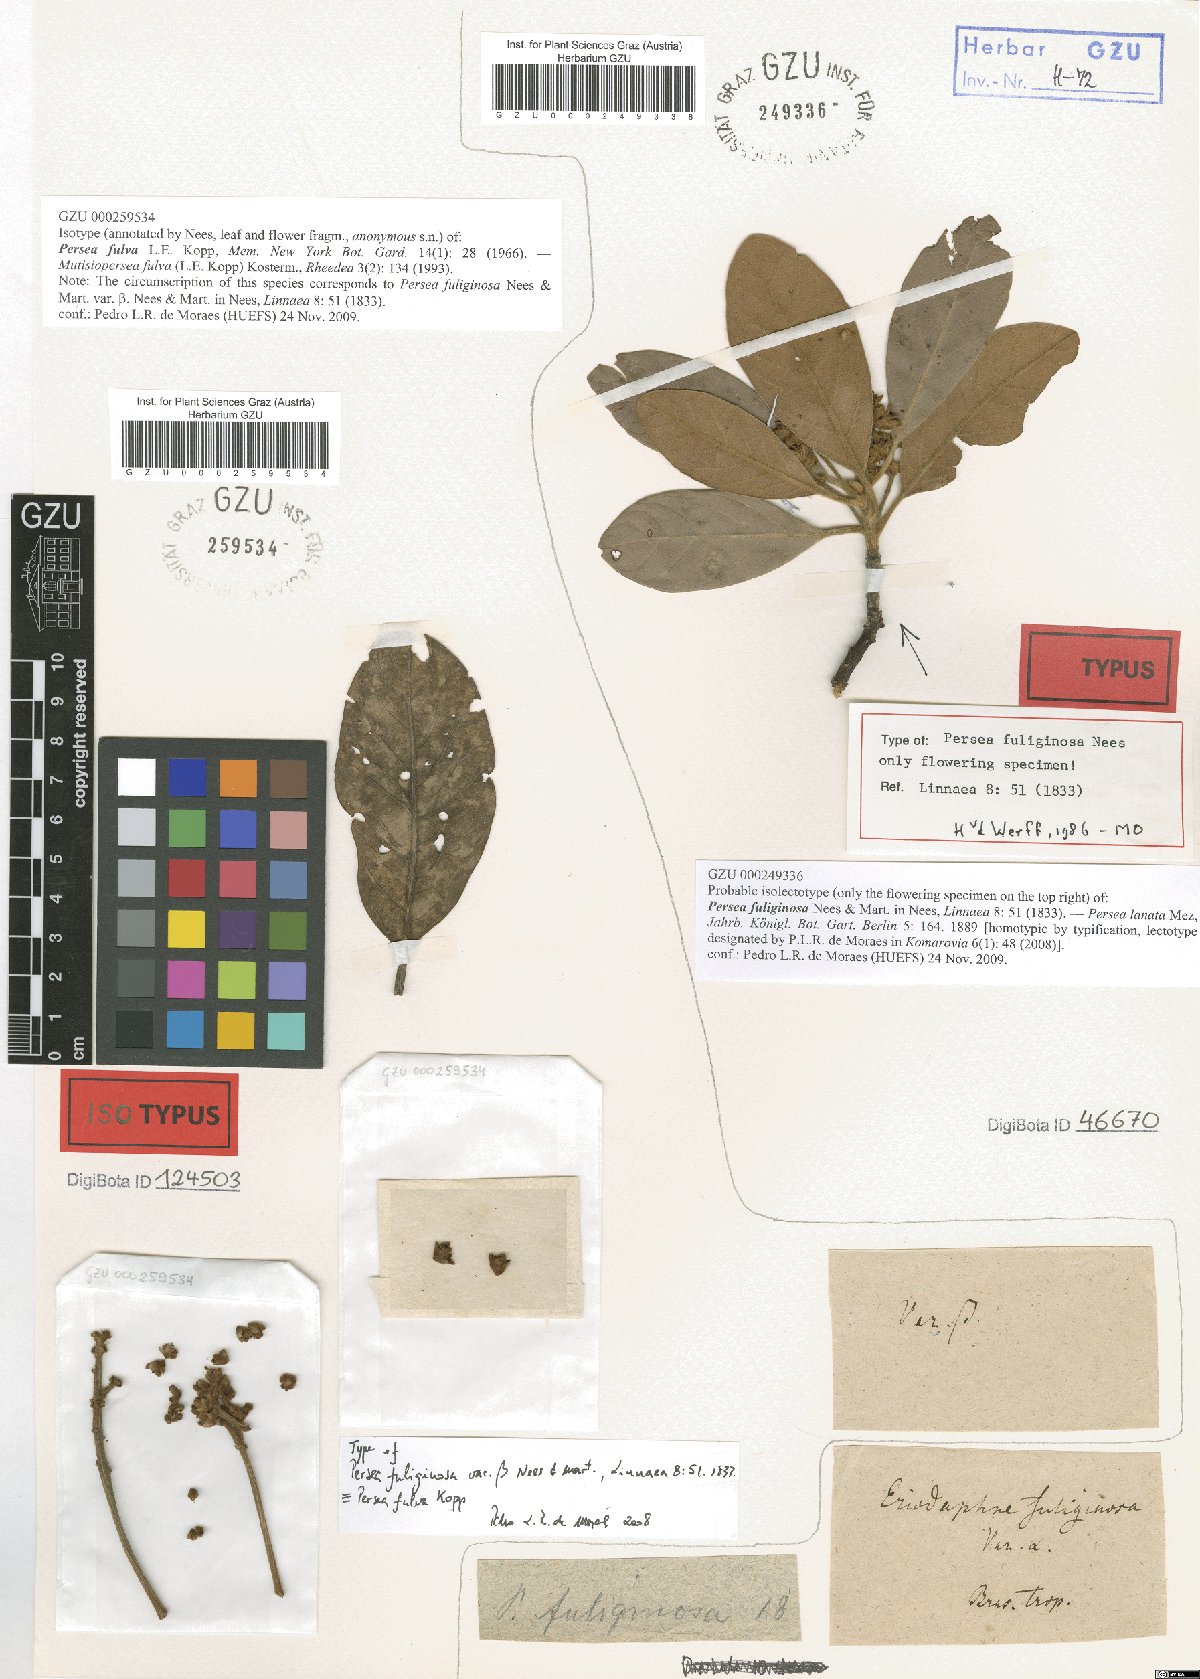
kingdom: Plantae
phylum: Tracheophyta
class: Magnoliopsida
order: Laurales
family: Lauraceae
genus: Persea
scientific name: Persea fulva
